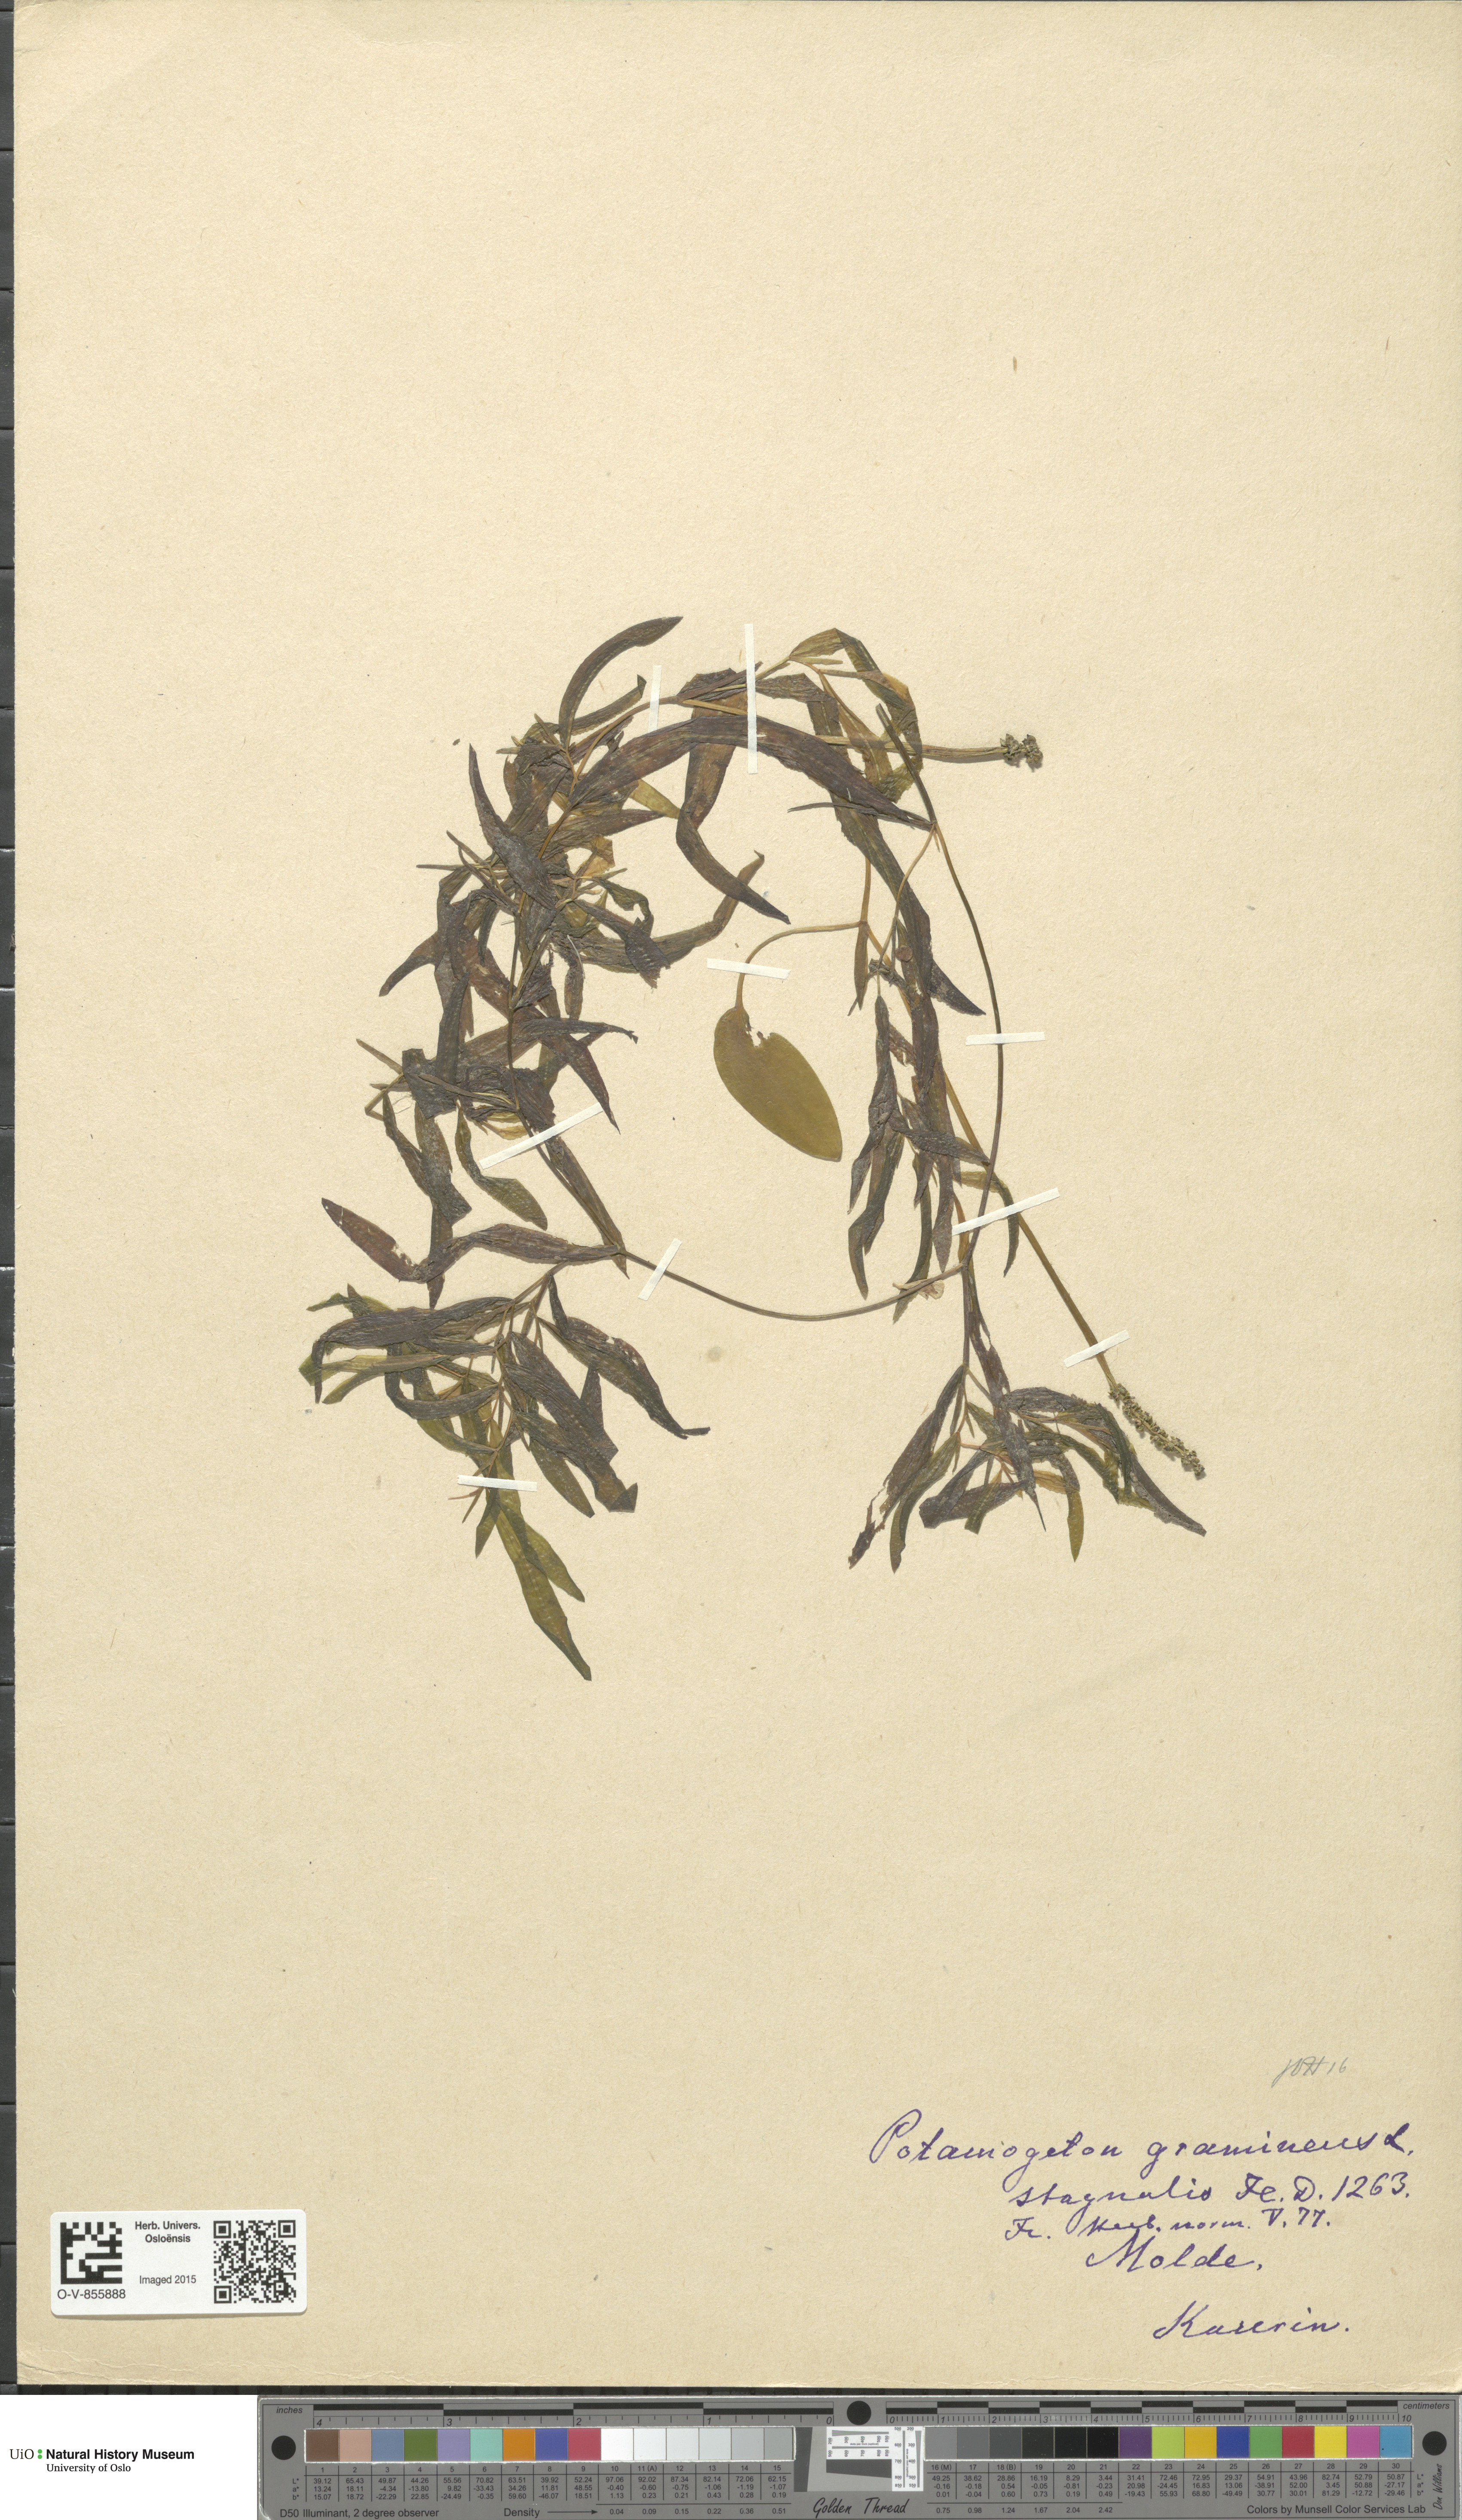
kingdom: Plantae
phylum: Tracheophyta
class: Liliopsida
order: Alismatales
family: Potamogetonaceae
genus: Potamogeton
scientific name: Potamogeton gramineus
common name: Various-leaved pondweed
